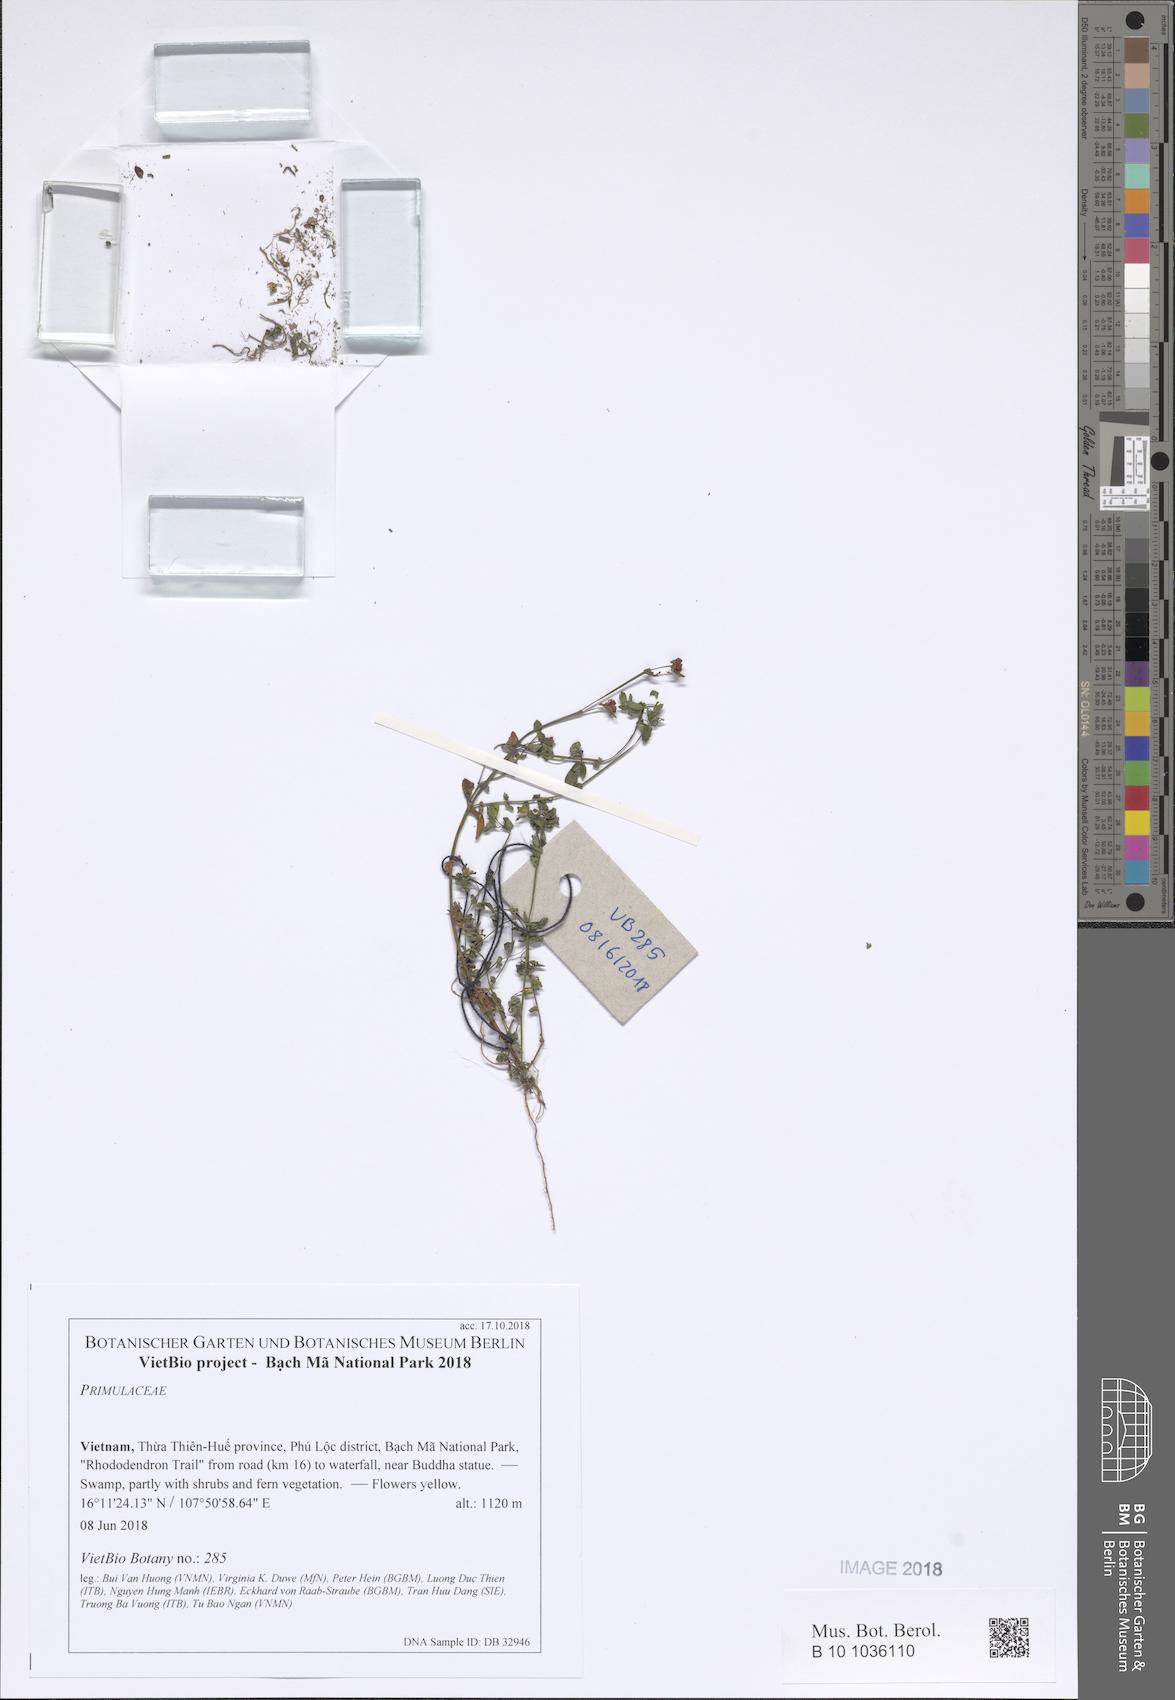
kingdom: Plantae
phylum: Tracheophyta
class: Magnoliopsida
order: Ericales
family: Primulaceae
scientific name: Primulaceae
